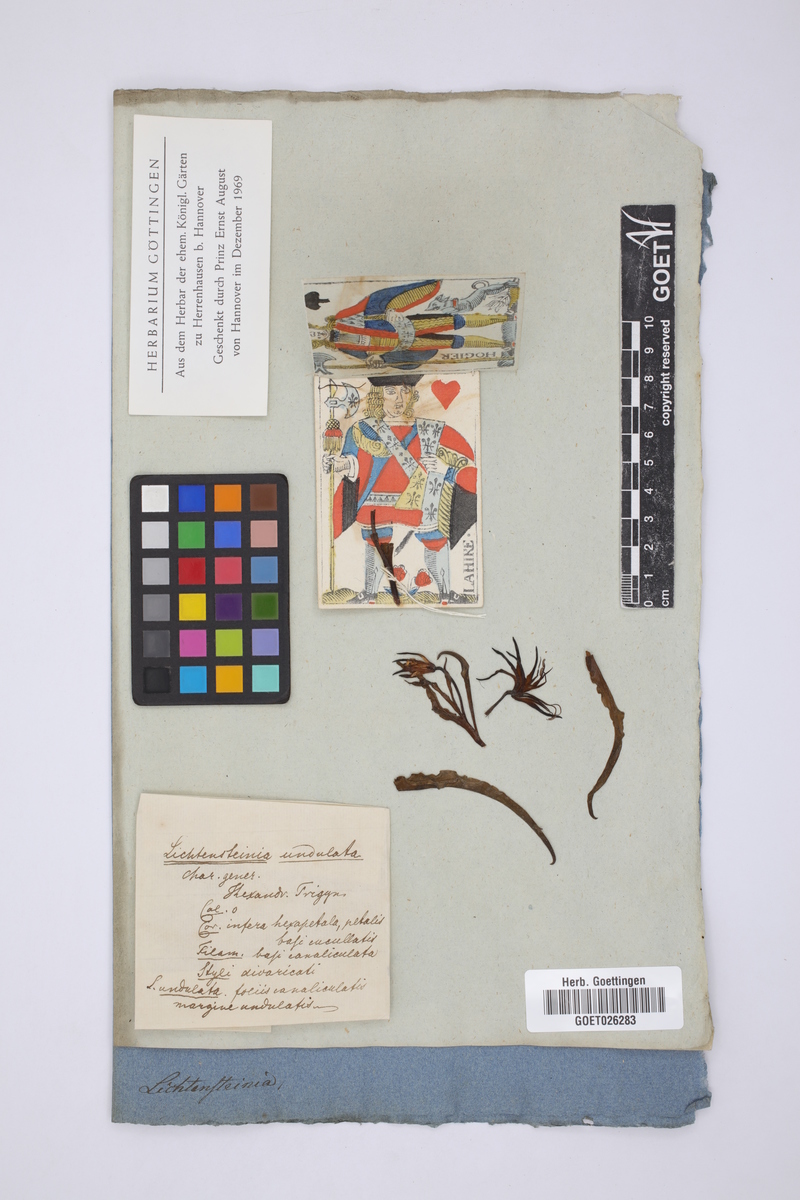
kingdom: Plantae
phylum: Tracheophyta
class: Liliopsida
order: Liliales
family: Colchicaceae
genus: Ornithoglossum
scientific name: Ornithoglossum undulatum
